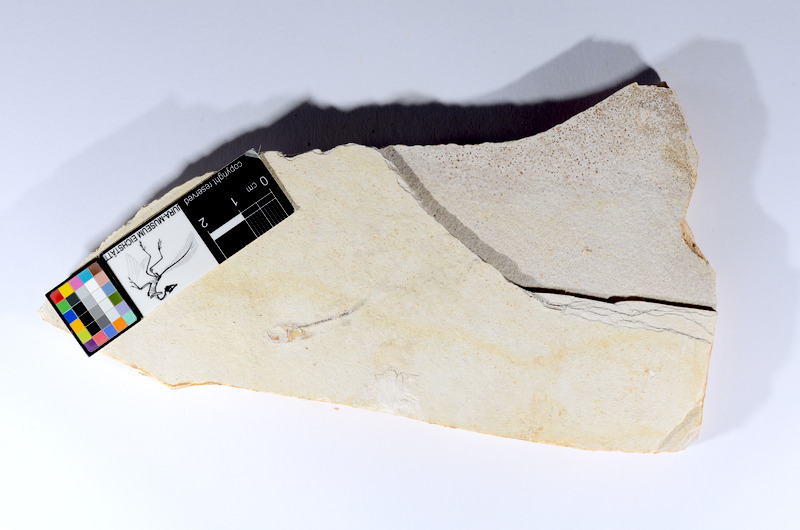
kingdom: Animalia
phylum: Chordata
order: Salmoniformes
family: Orthogonikleithridae
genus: Orthogonikleithrus
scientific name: Orthogonikleithrus hoelli
